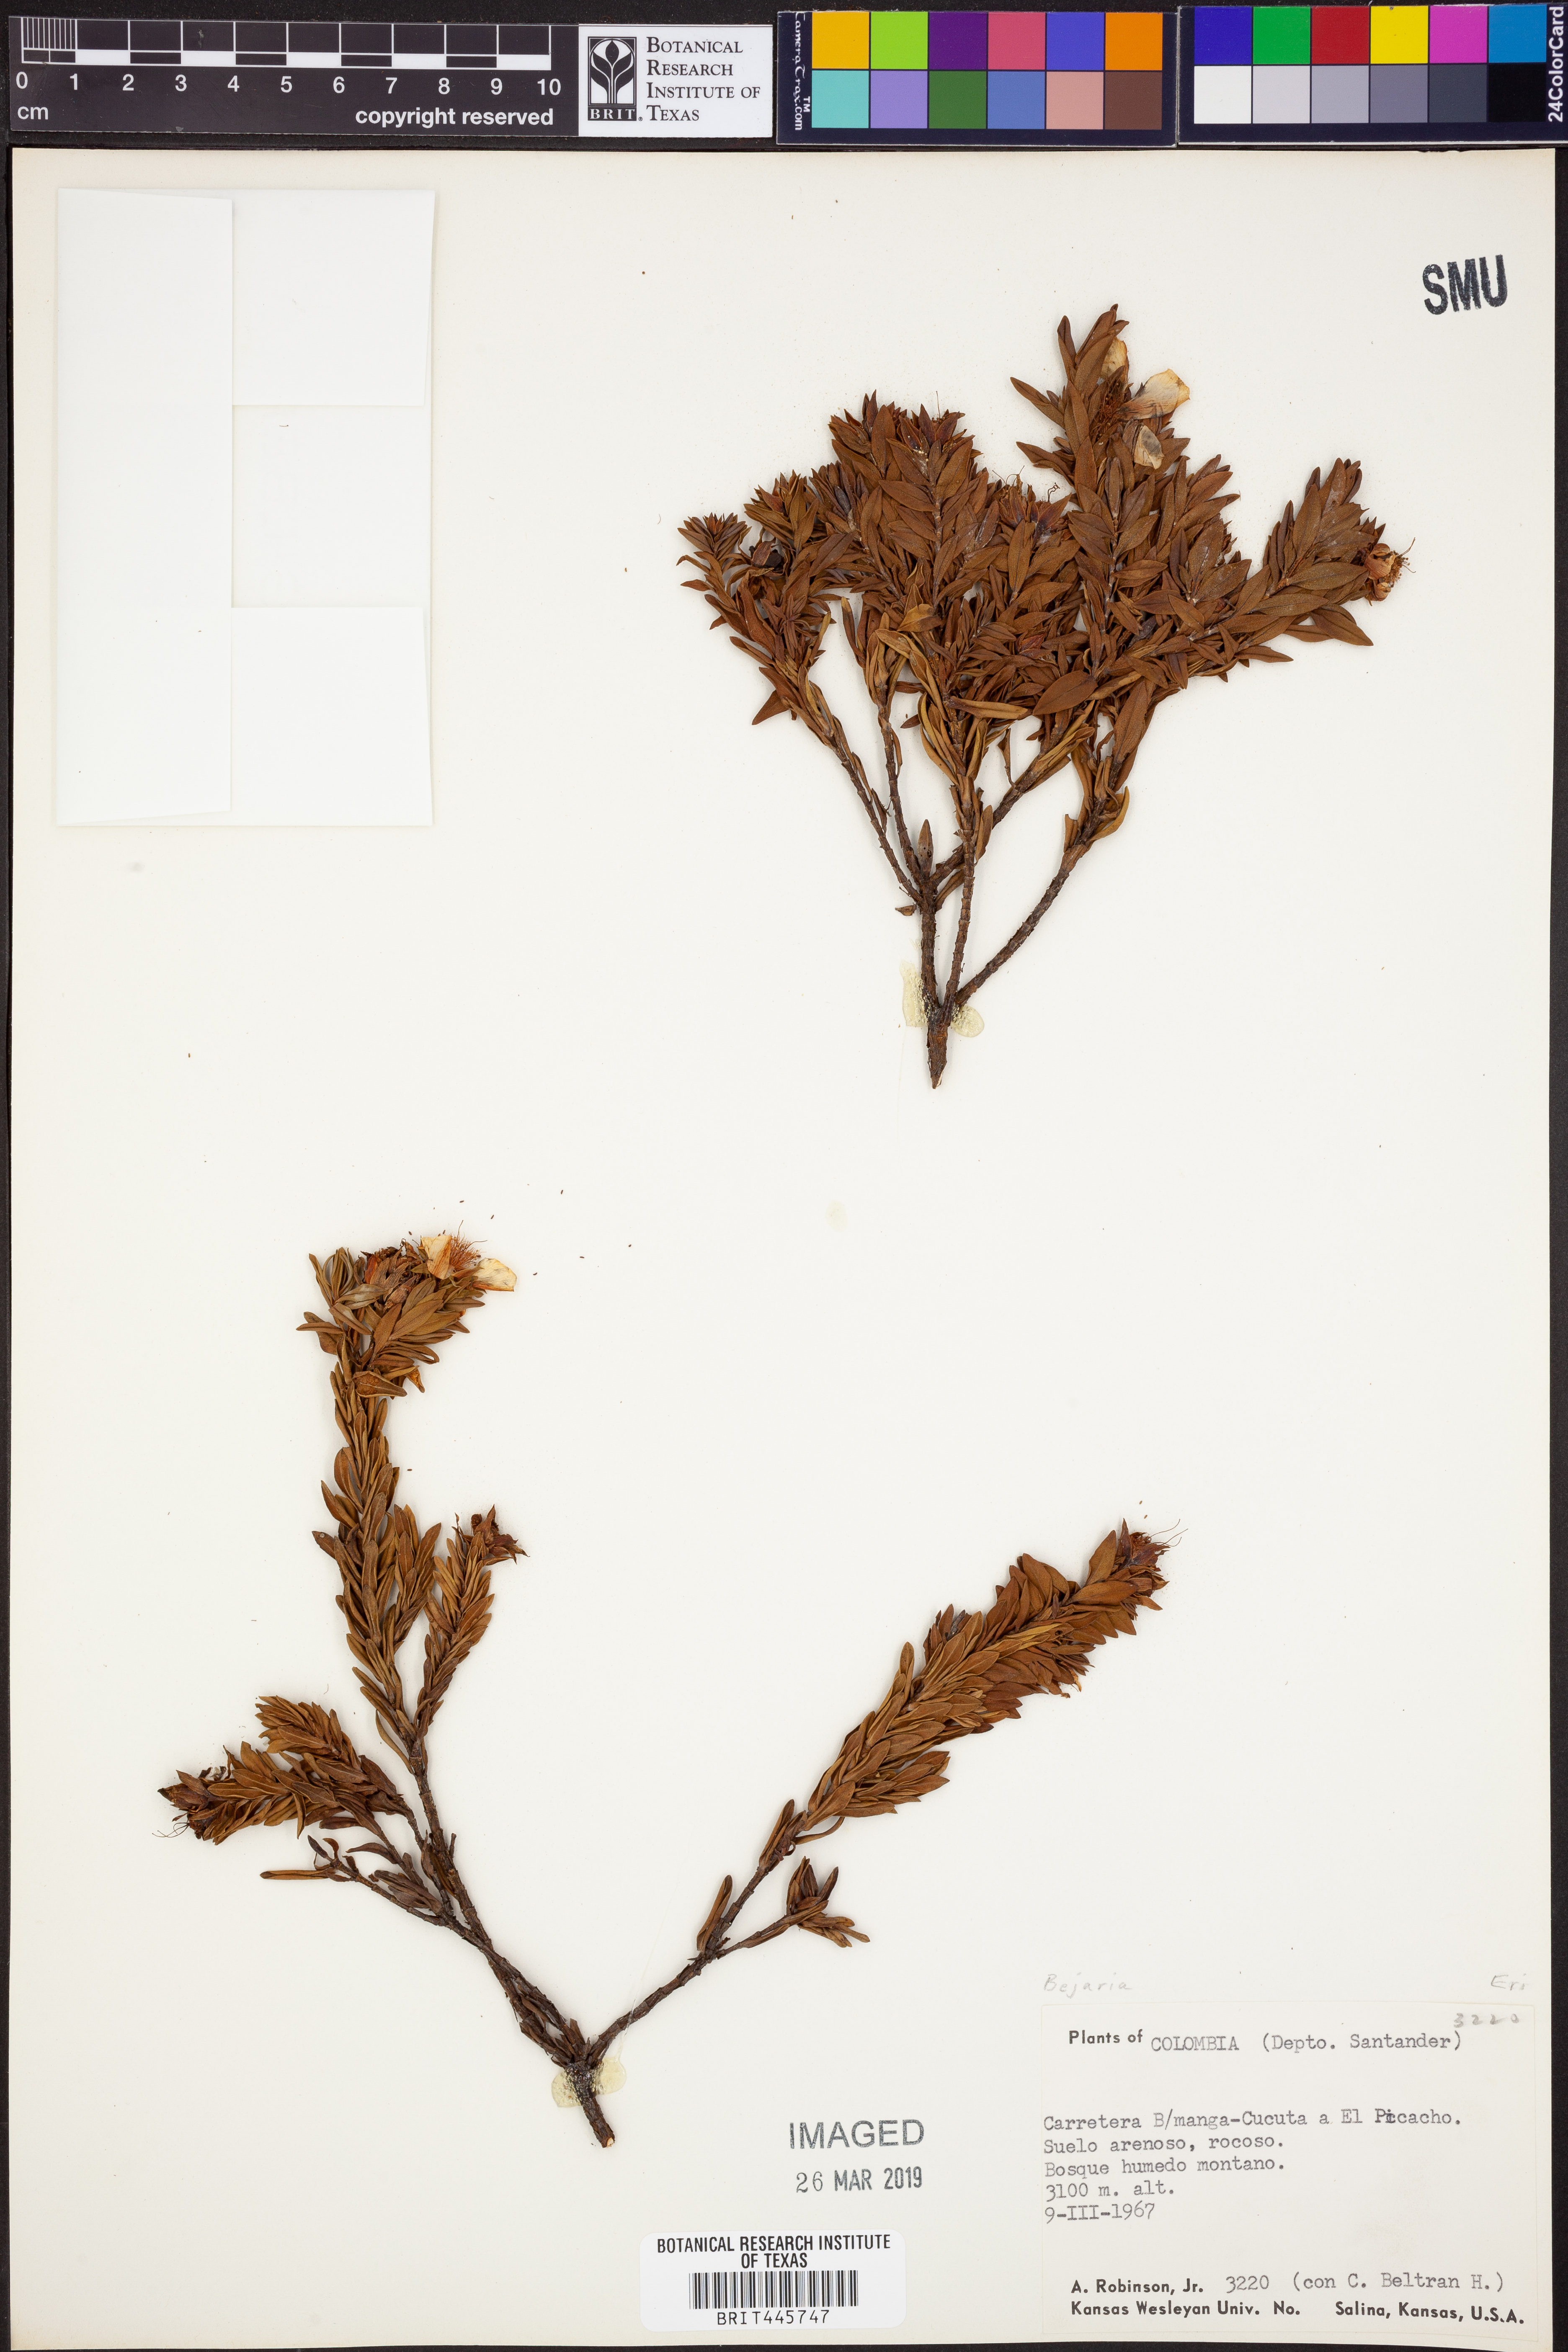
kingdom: Plantae
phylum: Tracheophyta
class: Magnoliopsida
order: Ericales
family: Ericaceae
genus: Bejaria
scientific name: Bejaria
